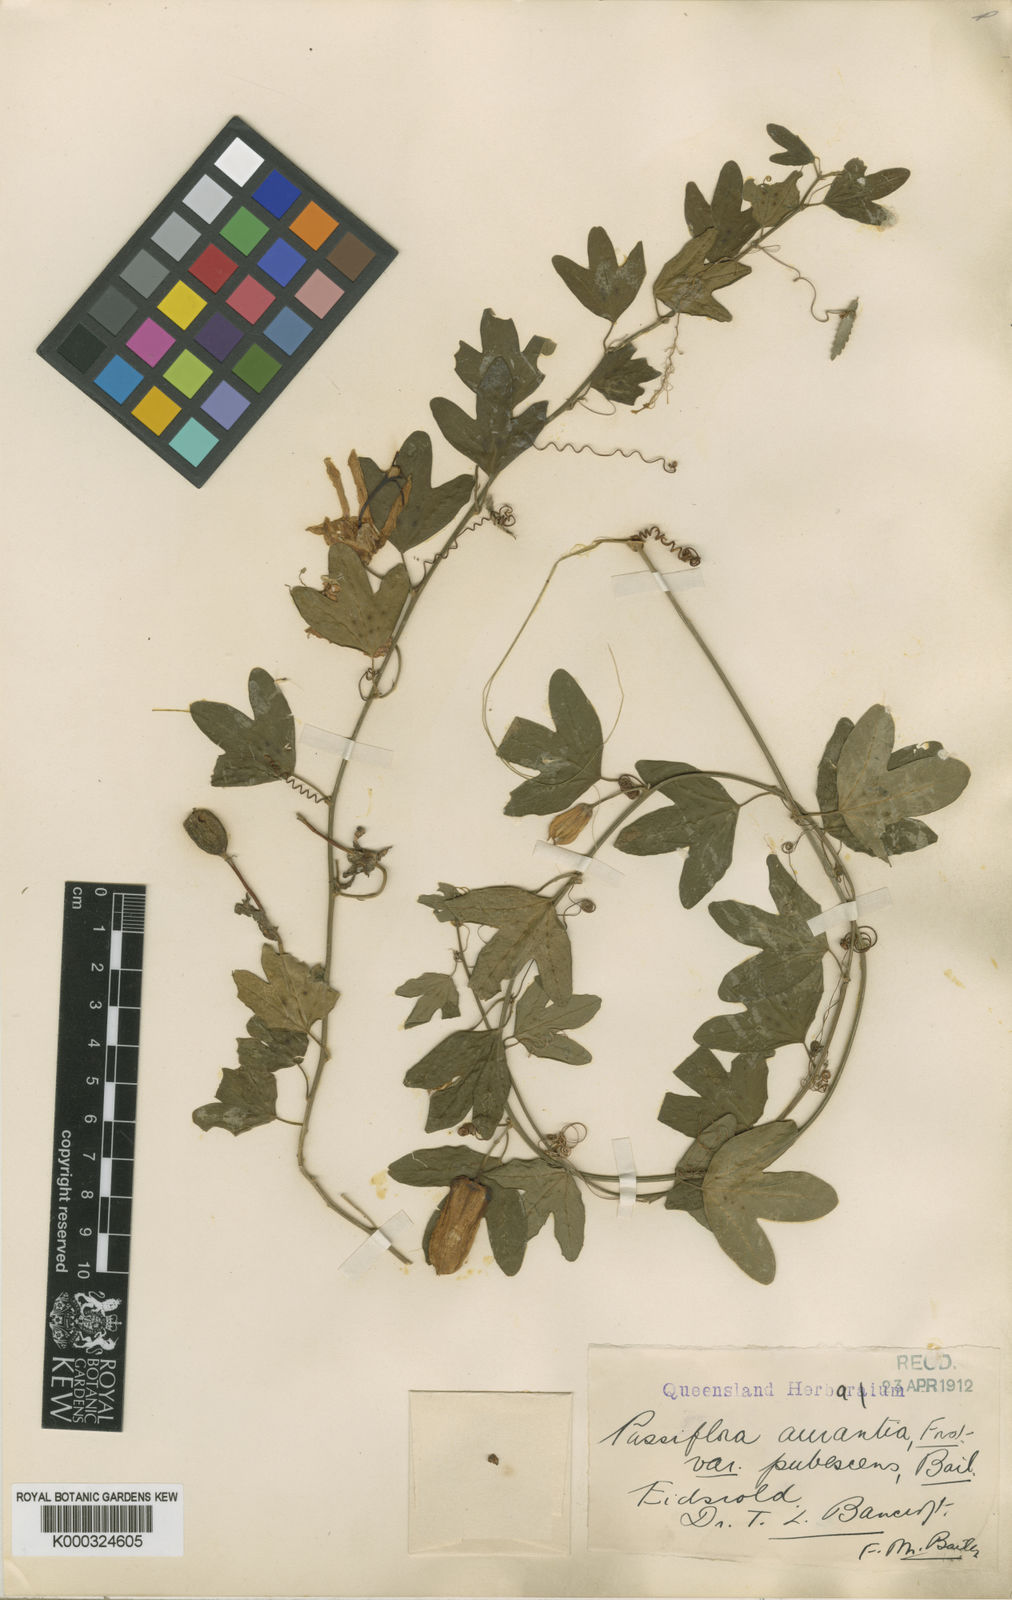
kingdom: Plantae
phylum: Tracheophyta
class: Magnoliopsida
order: Malpighiales
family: Passifloraceae
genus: Passiflora
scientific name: Passiflora aurantia
